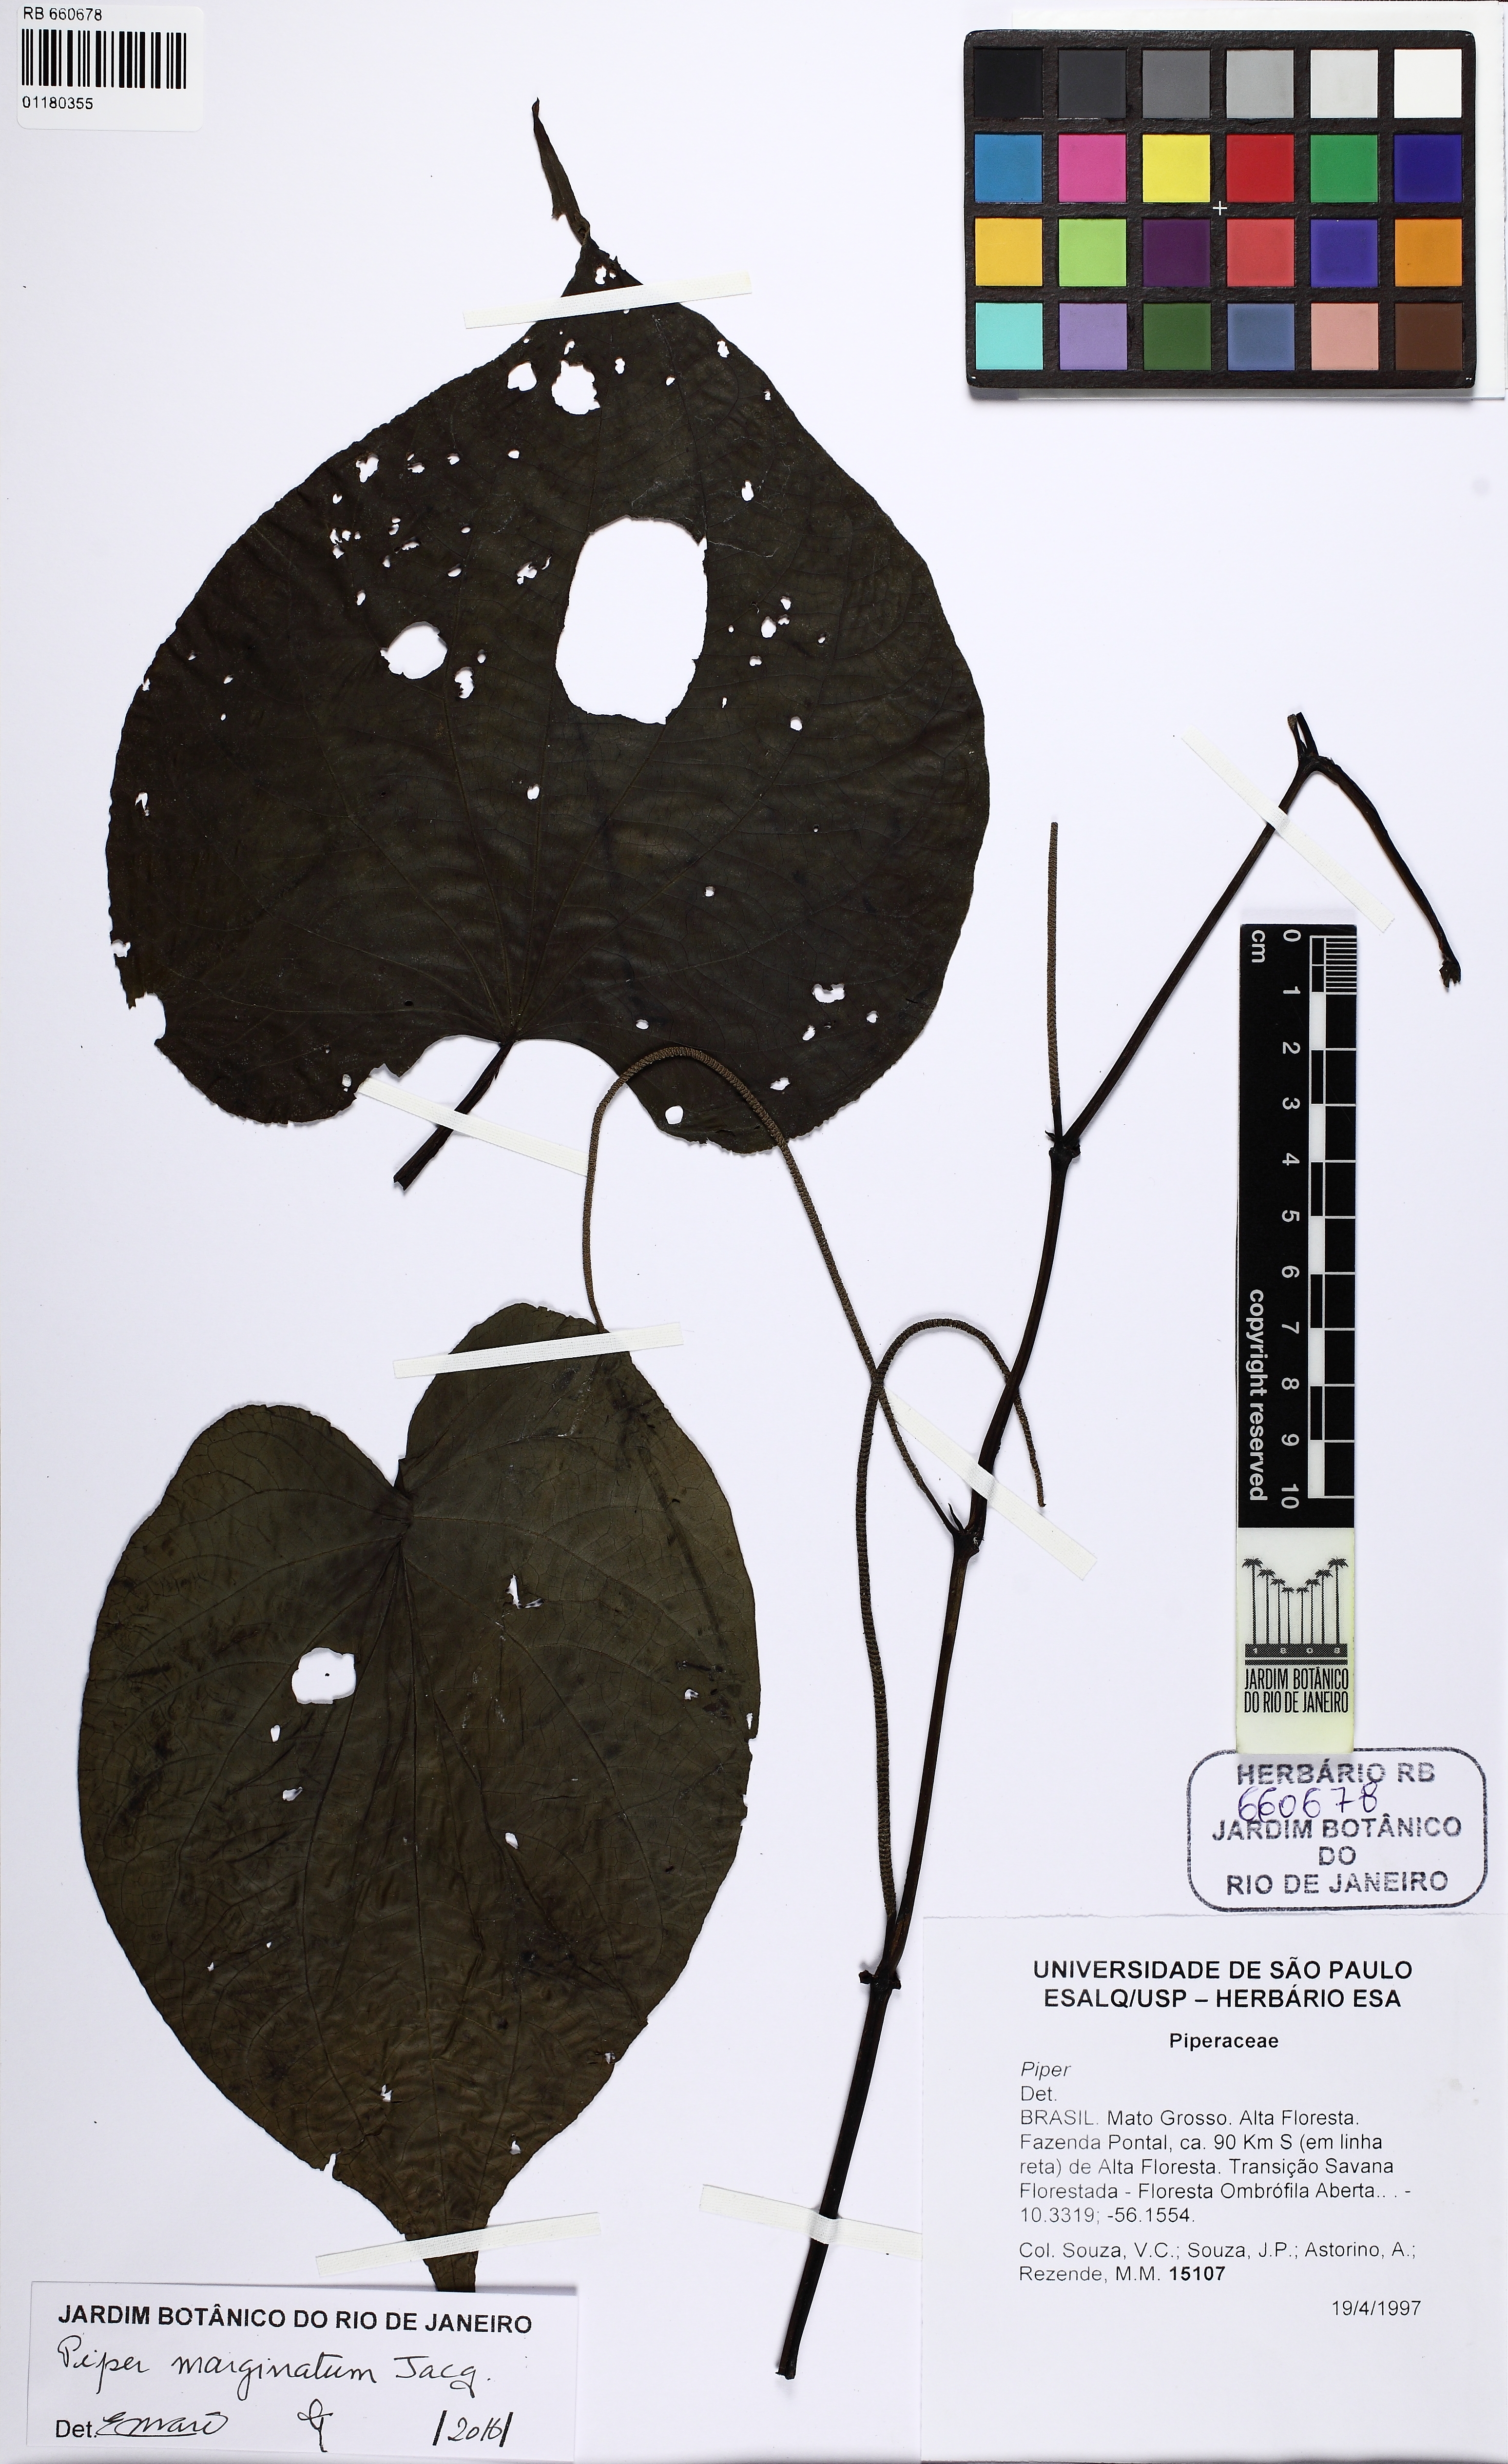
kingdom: Plantae
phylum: Tracheophyta
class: Magnoliopsida
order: Piperales
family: Piperaceae
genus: Piper
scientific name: Piper marginatum
